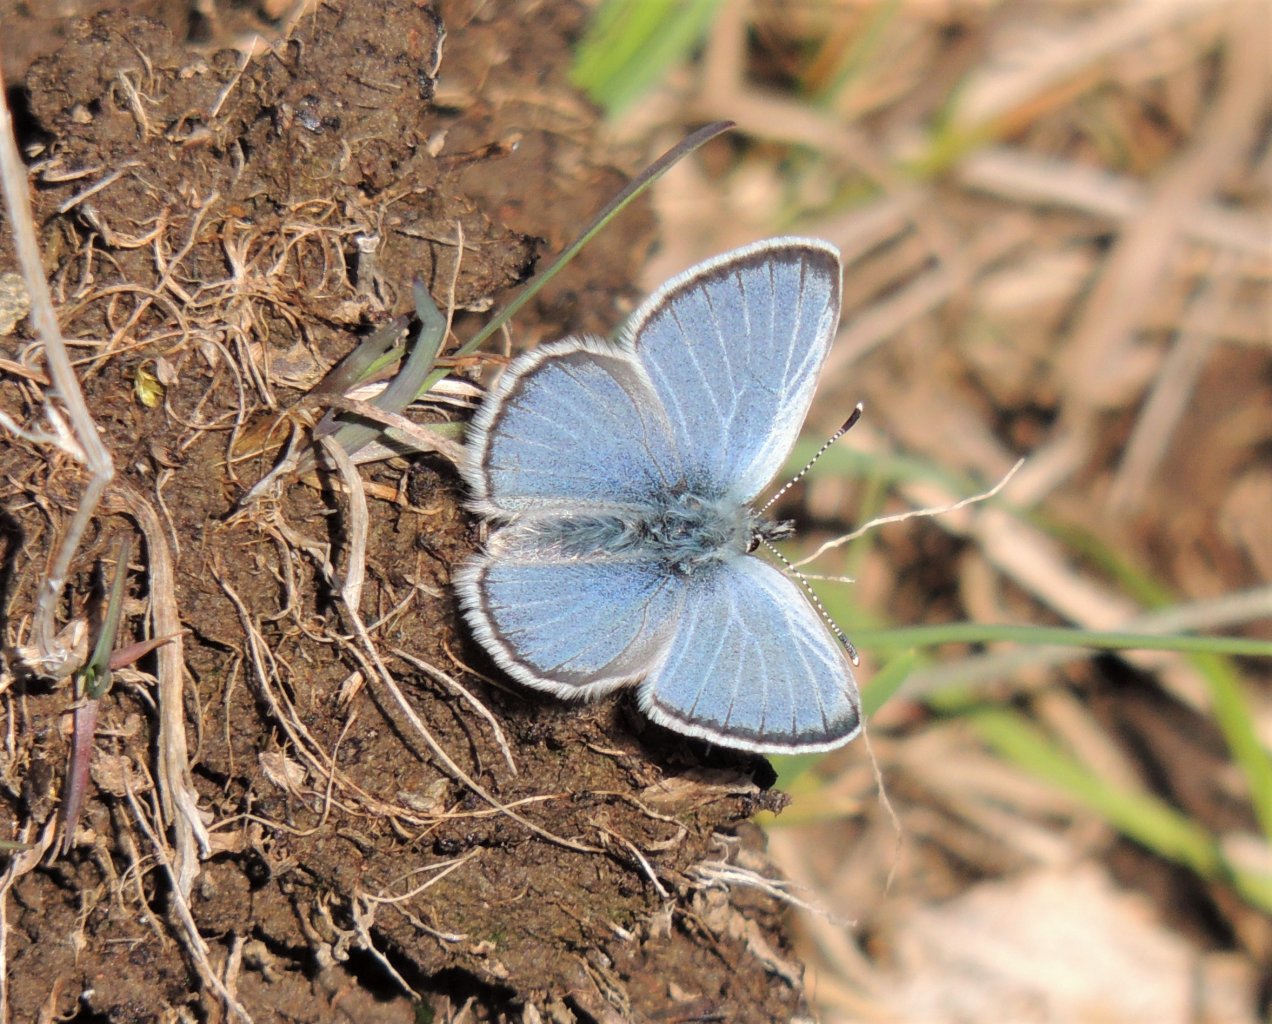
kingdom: Animalia
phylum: Arthropoda
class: Insecta
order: Lepidoptera
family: Lycaenidae
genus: Celastrina
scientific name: Celastrina ladon
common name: Echo Azure
